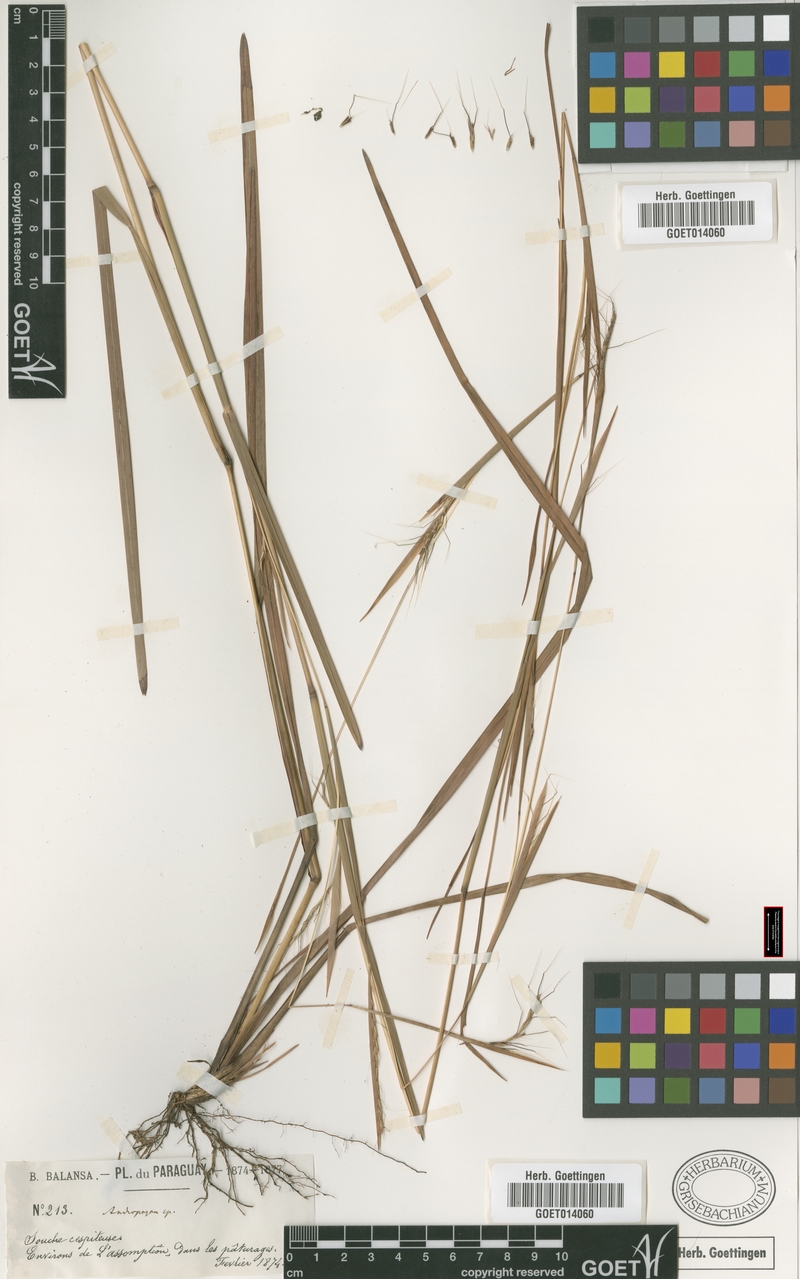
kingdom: Plantae
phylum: Tracheophyta
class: Liliopsida
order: Poales
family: Poaceae
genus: Schizachyrium
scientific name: Schizachyrium sanguineum
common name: Crimson bluestem
